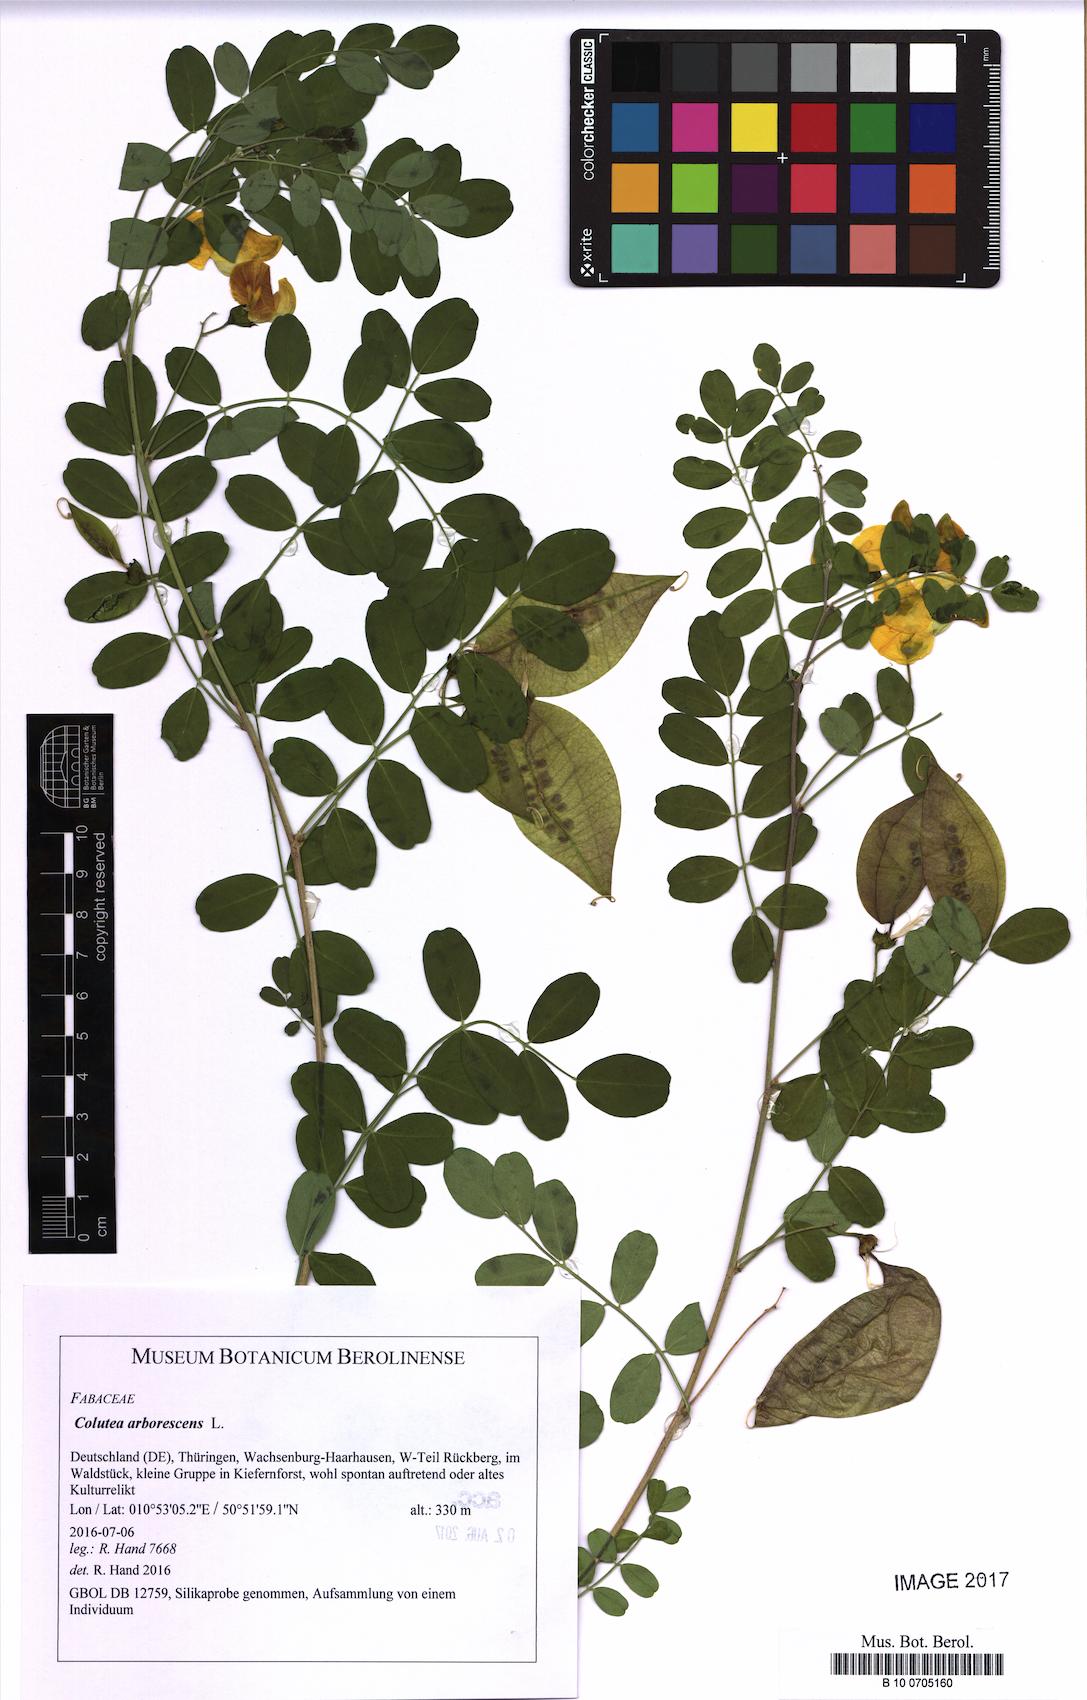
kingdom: Plantae
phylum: Tracheophyta
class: Magnoliopsida
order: Fabales
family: Fabaceae
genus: Colutea
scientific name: Colutea arborescens
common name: Bladder-senna
